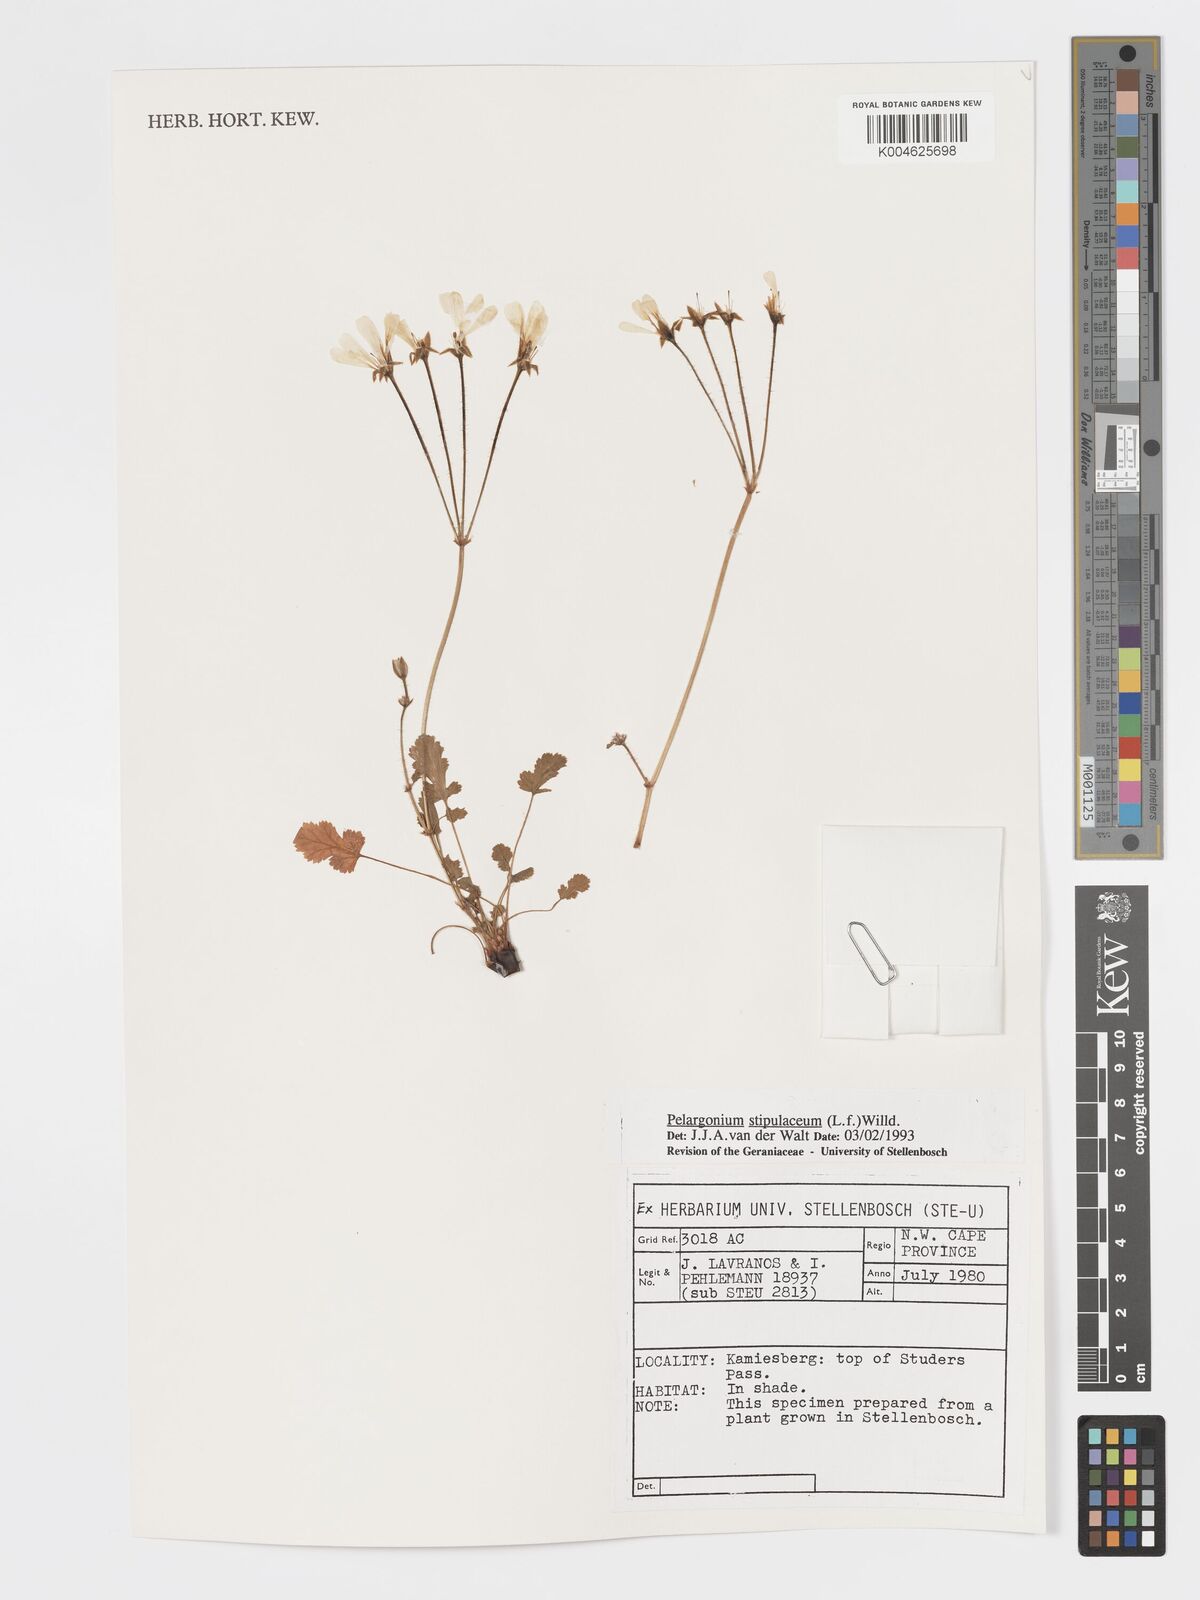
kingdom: Plantae
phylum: Tracheophyta
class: Magnoliopsida
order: Geraniales
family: Geraniaceae
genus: Pelargonium
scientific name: Pelargonium stipulaceum
